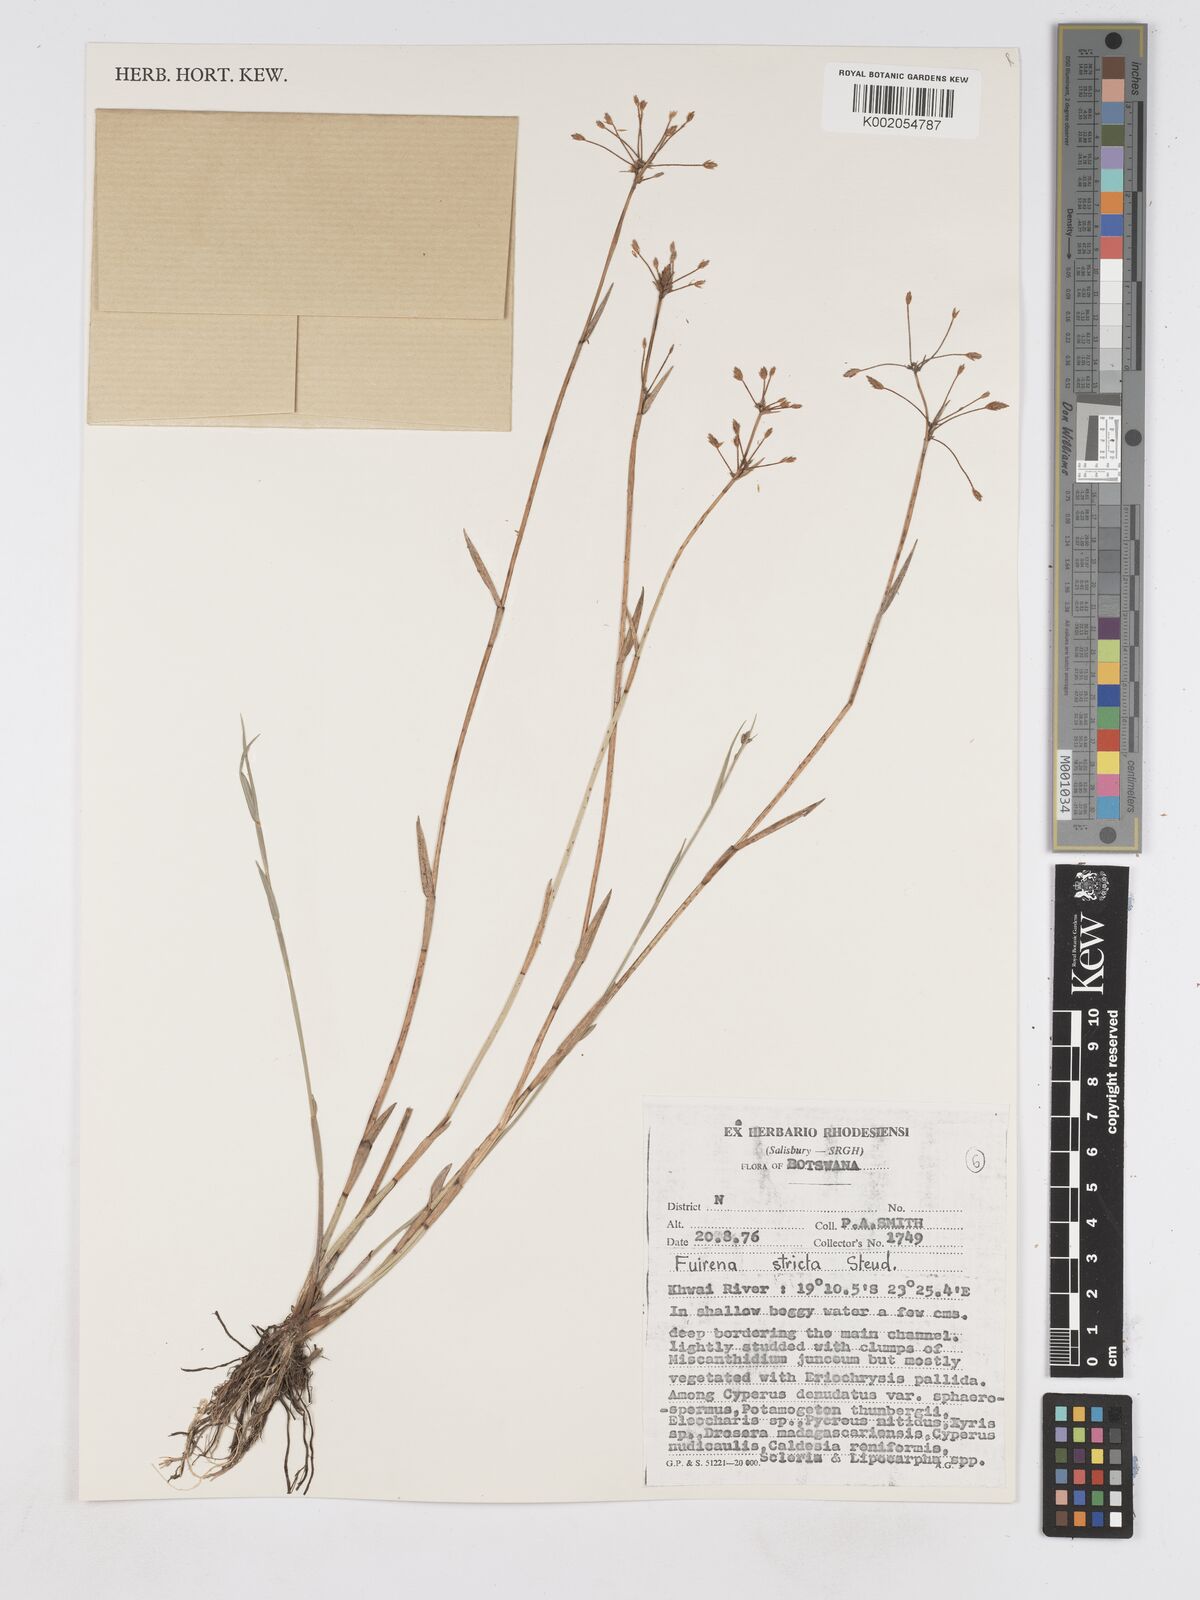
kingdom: Plantae
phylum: Tracheophyta
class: Liliopsida
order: Poales
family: Cyperaceae
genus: Fuirena
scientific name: Fuirena stricta
